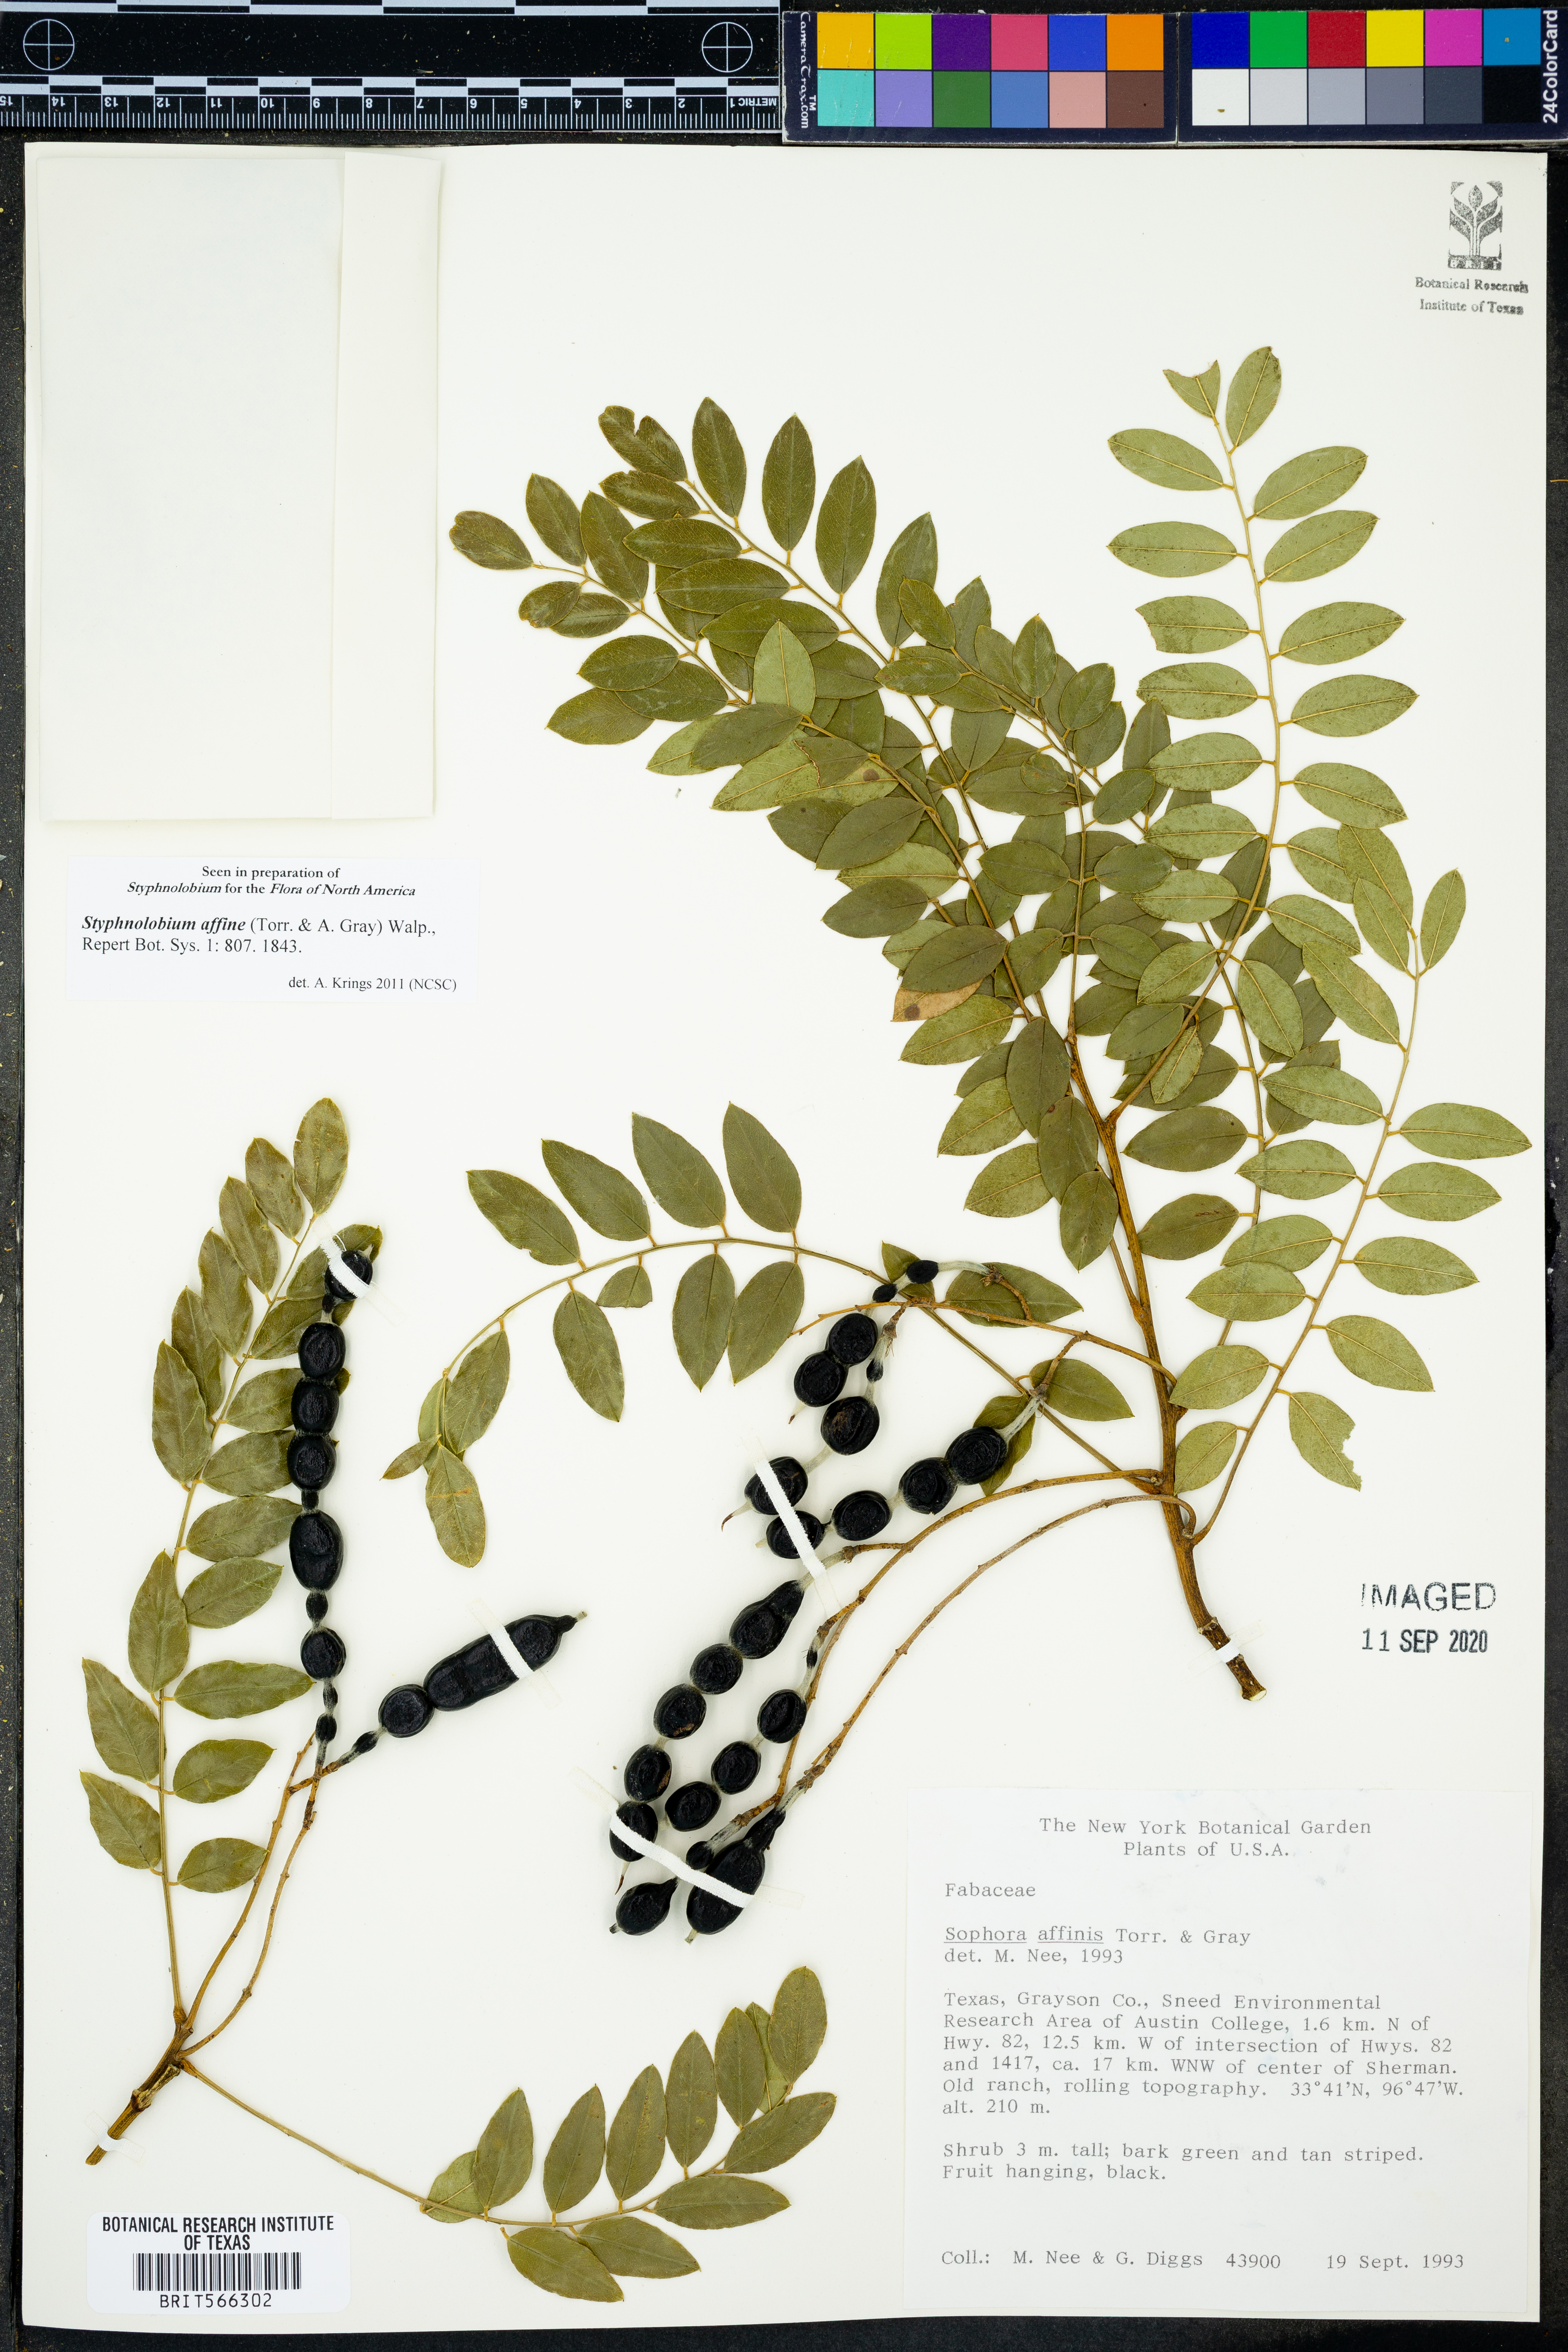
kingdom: Plantae
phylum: Tracheophyta
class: Magnoliopsida
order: Fabales
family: Fabaceae
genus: Styphnolobium
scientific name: Styphnolobium affine
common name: Texas sophora
